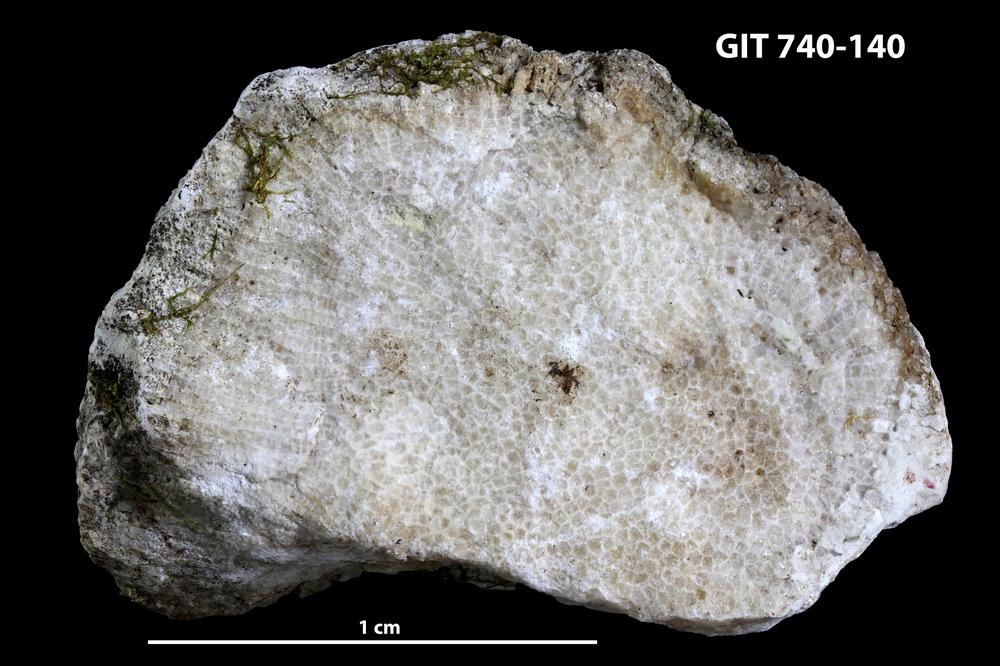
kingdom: Animalia
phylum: Cnidaria
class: Anthozoa
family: Favositidae
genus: Favosites
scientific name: Favosites
